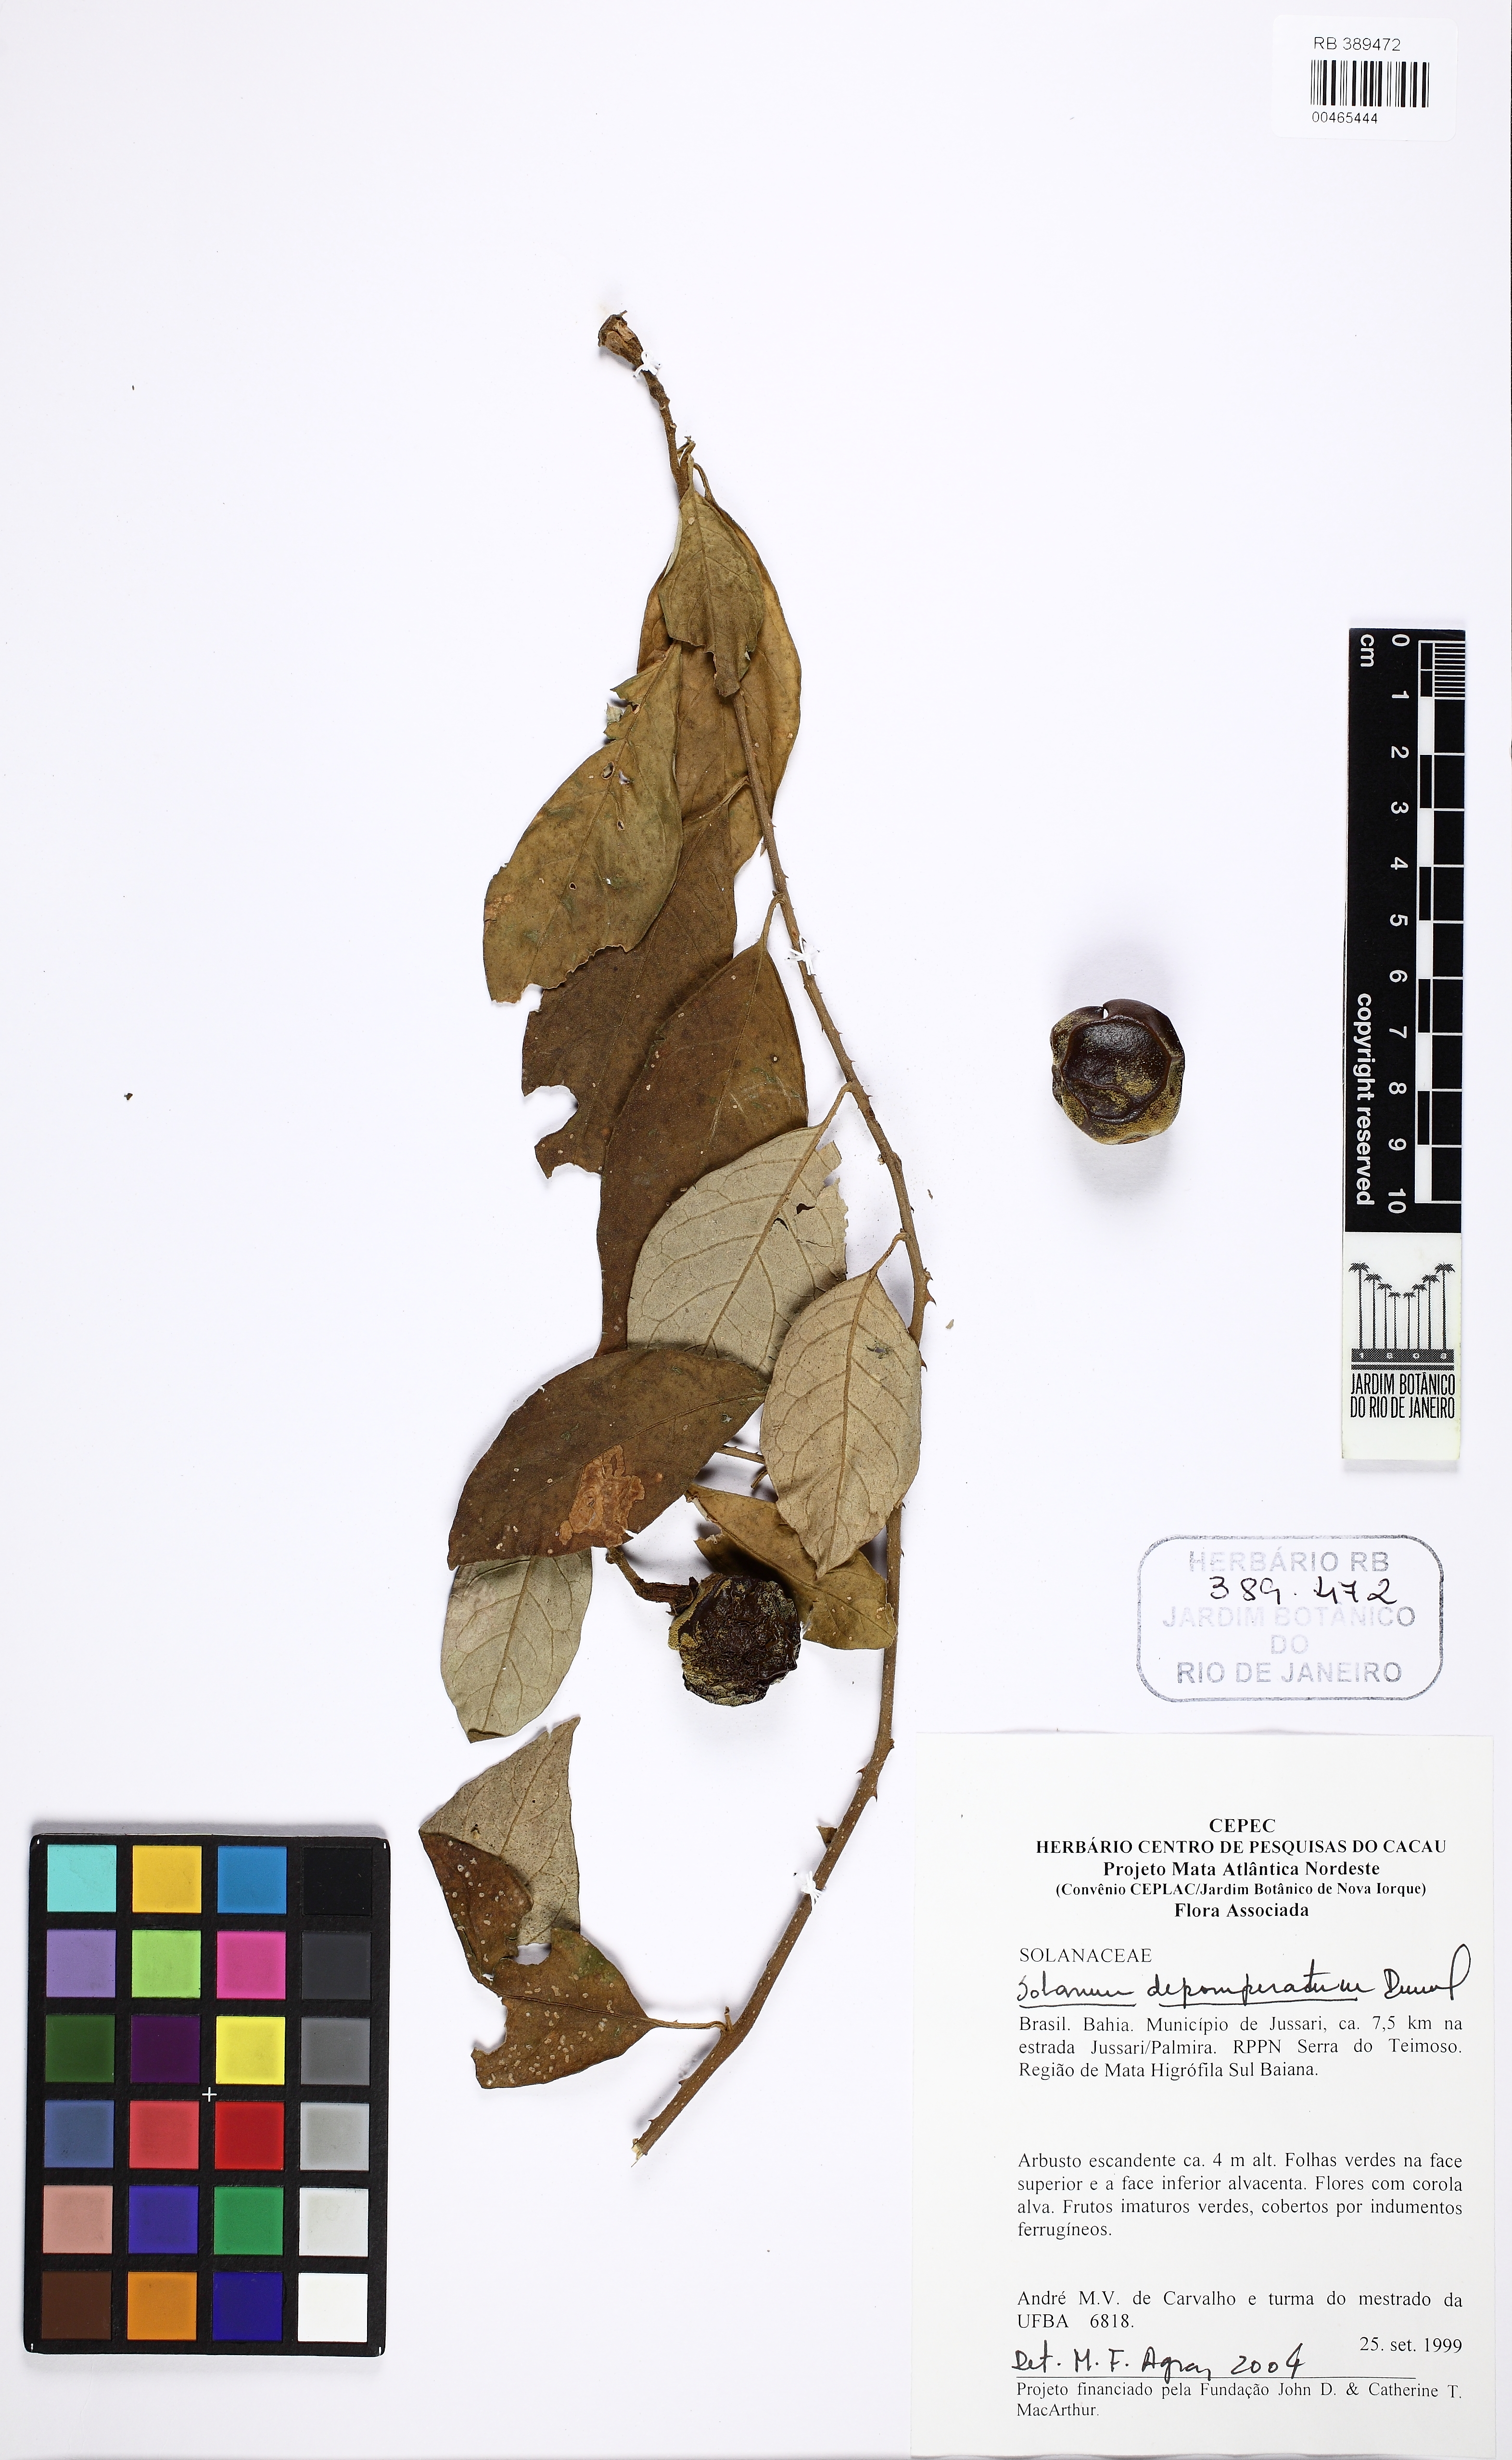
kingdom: Plantae
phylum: Tracheophyta
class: Magnoliopsida
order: Solanales
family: Solanaceae
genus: Solanum
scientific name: Solanum depauperatum
